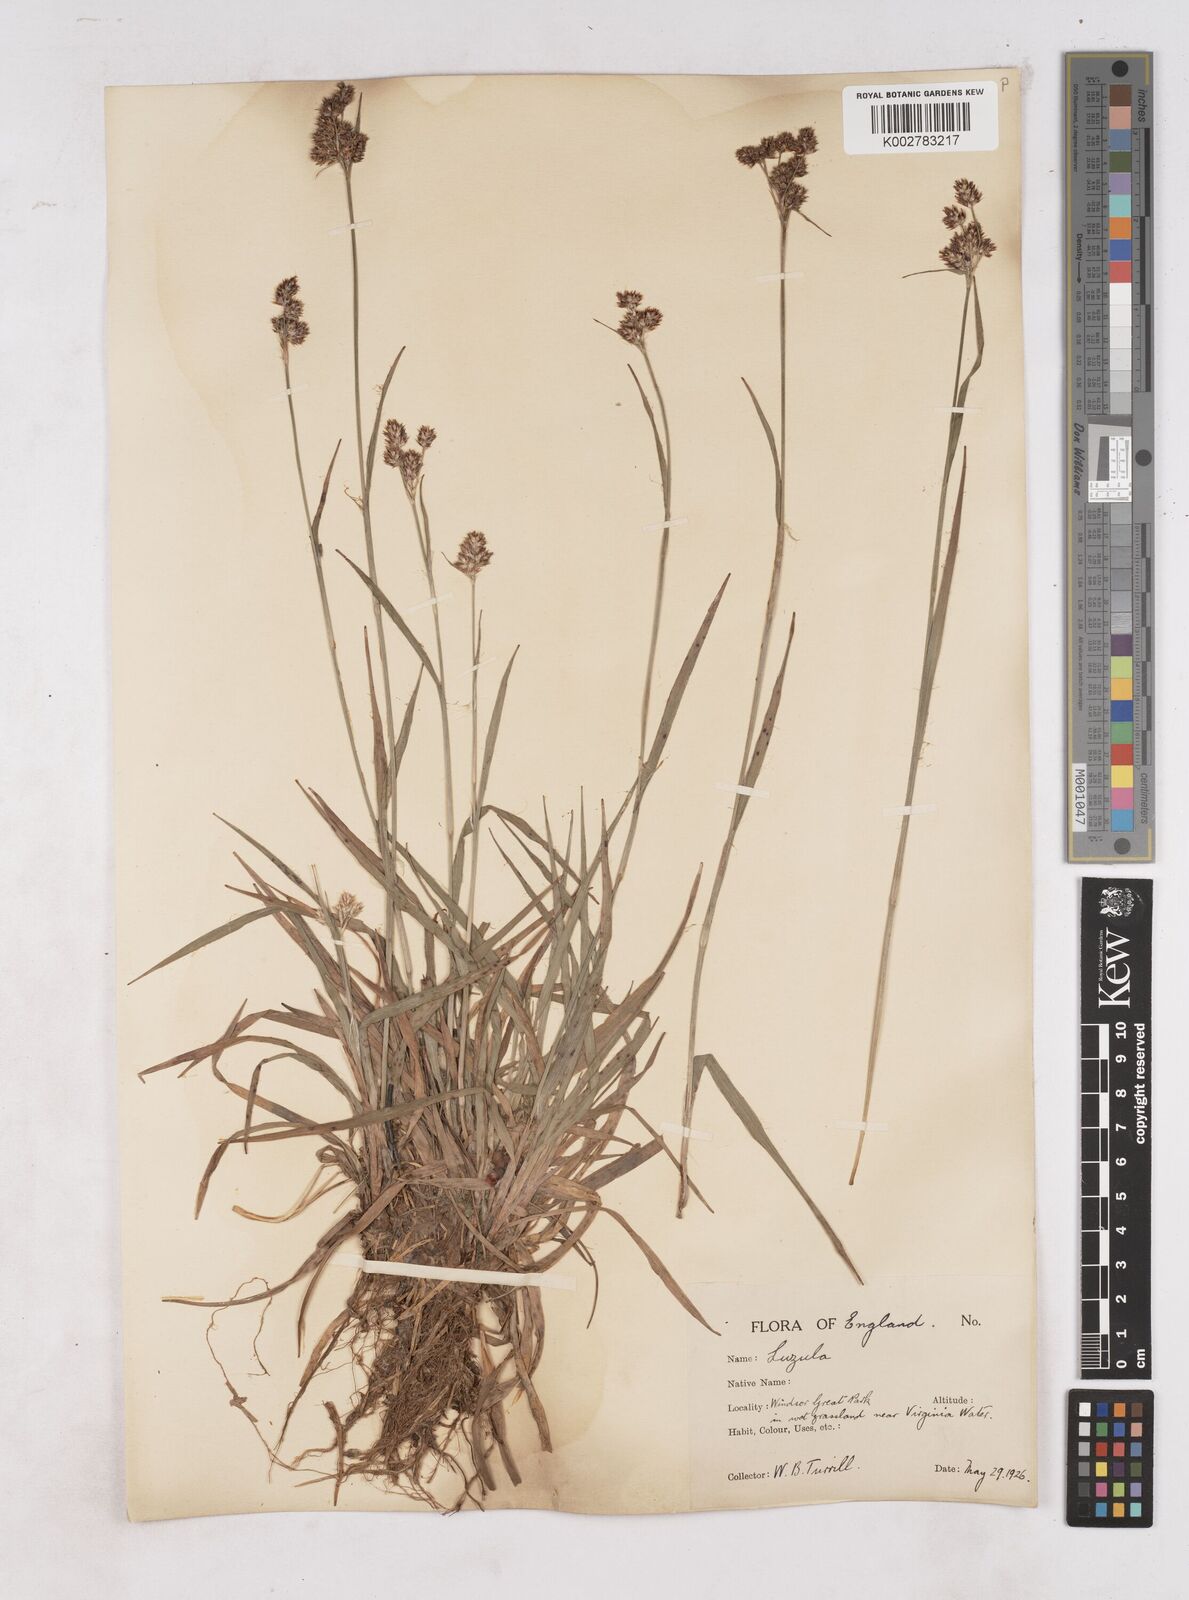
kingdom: Plantae
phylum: Tracheophyta
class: Liliopsida
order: Poales
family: Juncaceae
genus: Luzula
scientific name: Luzula multiflora
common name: Heath wood-rush
